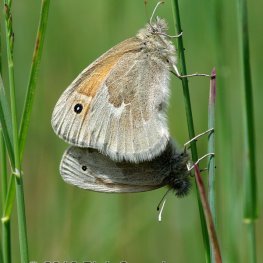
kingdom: Animalia
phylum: Arthropoda
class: Insecta
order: Lepidoptera
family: Nymphalidae
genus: Coenonympha
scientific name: Coenonympha tullia
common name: Large Heath
